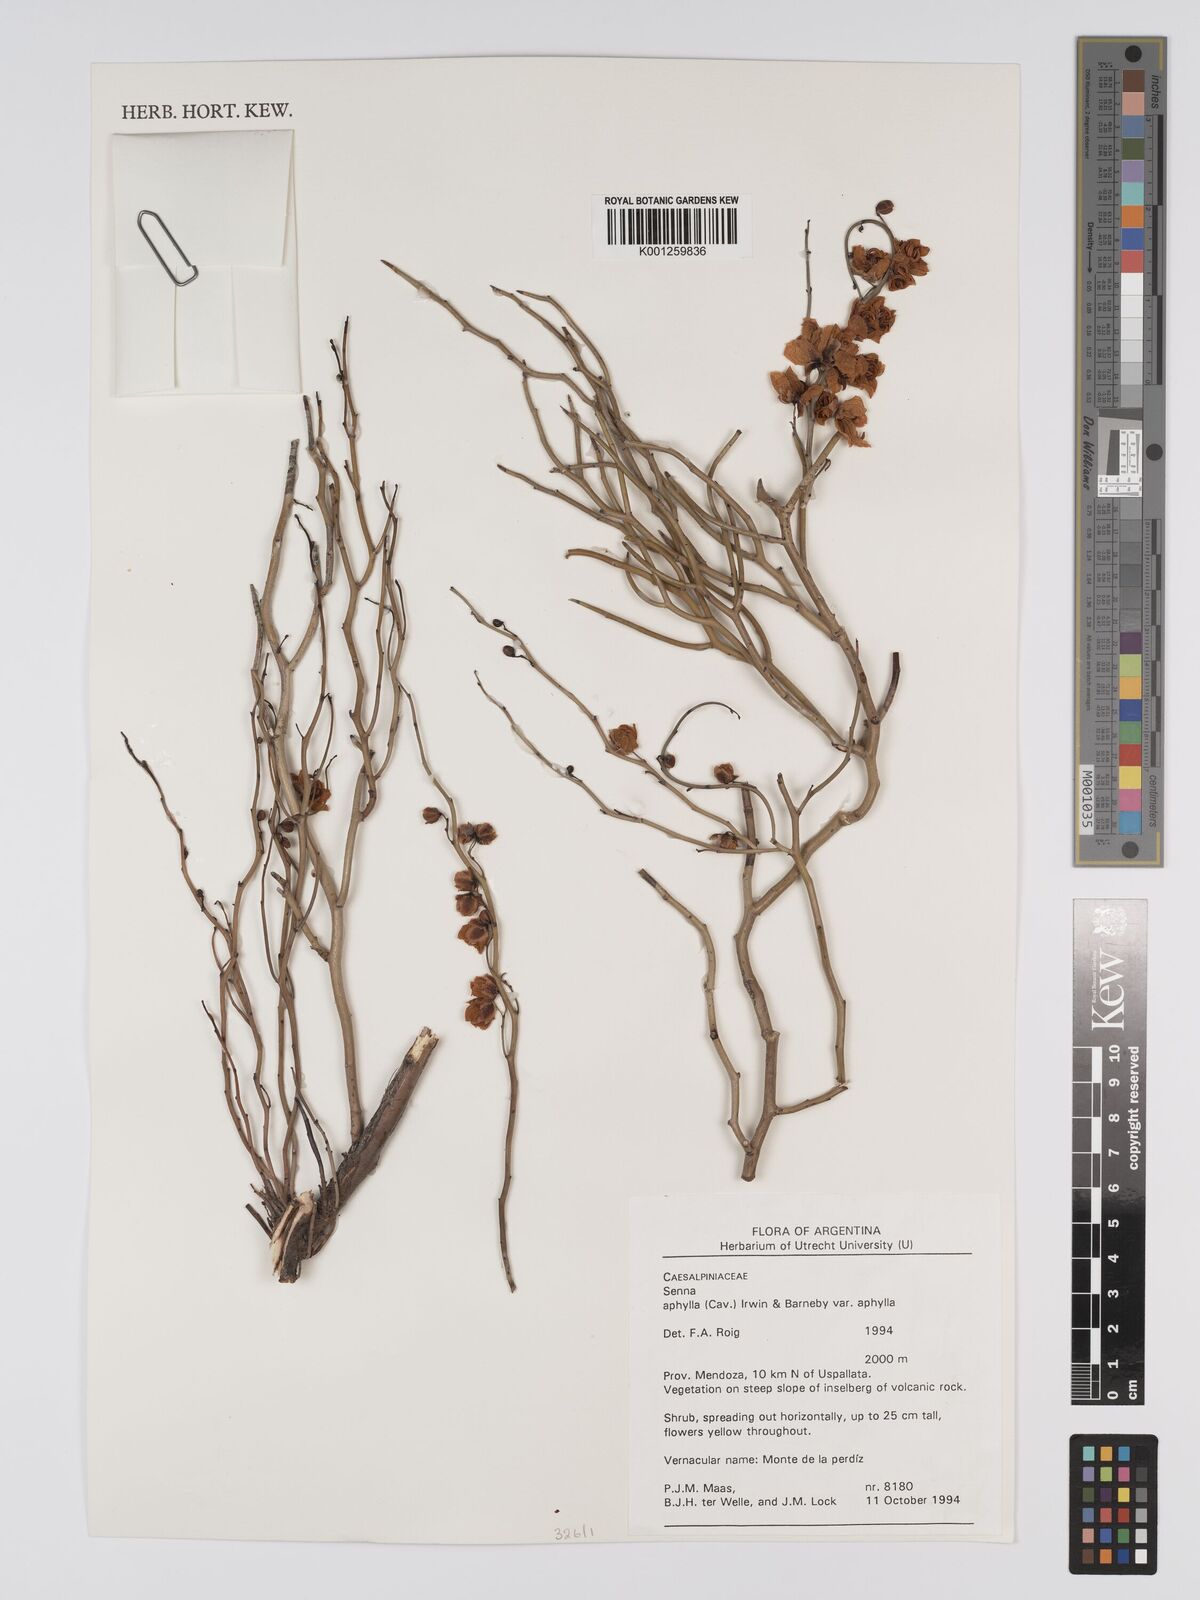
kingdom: Plantae
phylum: Tracheophyta
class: Magnoliopsida
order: Fabales
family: Fabaceae
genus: Senna
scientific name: Senna aphylla
